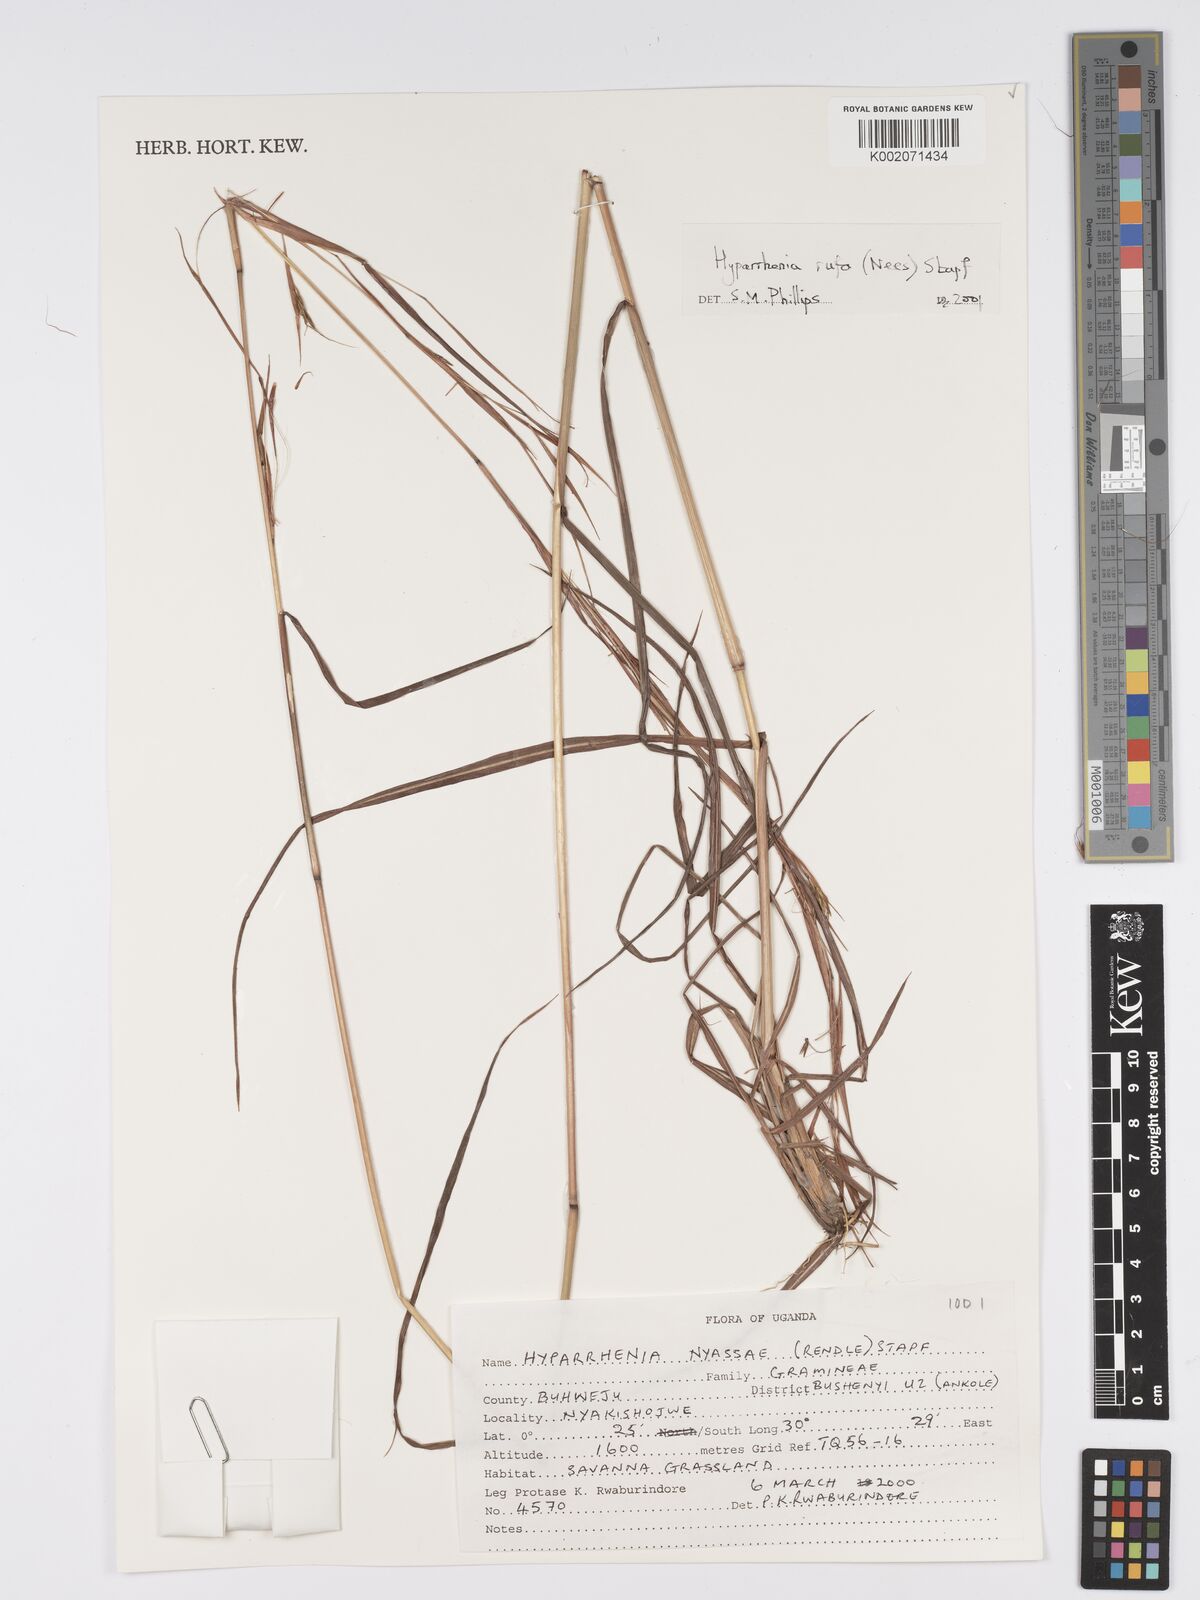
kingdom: Plantae
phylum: Tracheophyta
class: Liliopsida
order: Poales
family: Poaceae
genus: Hyparrhenia
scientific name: Hyparrhenia rufa
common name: Jaraguagrass
